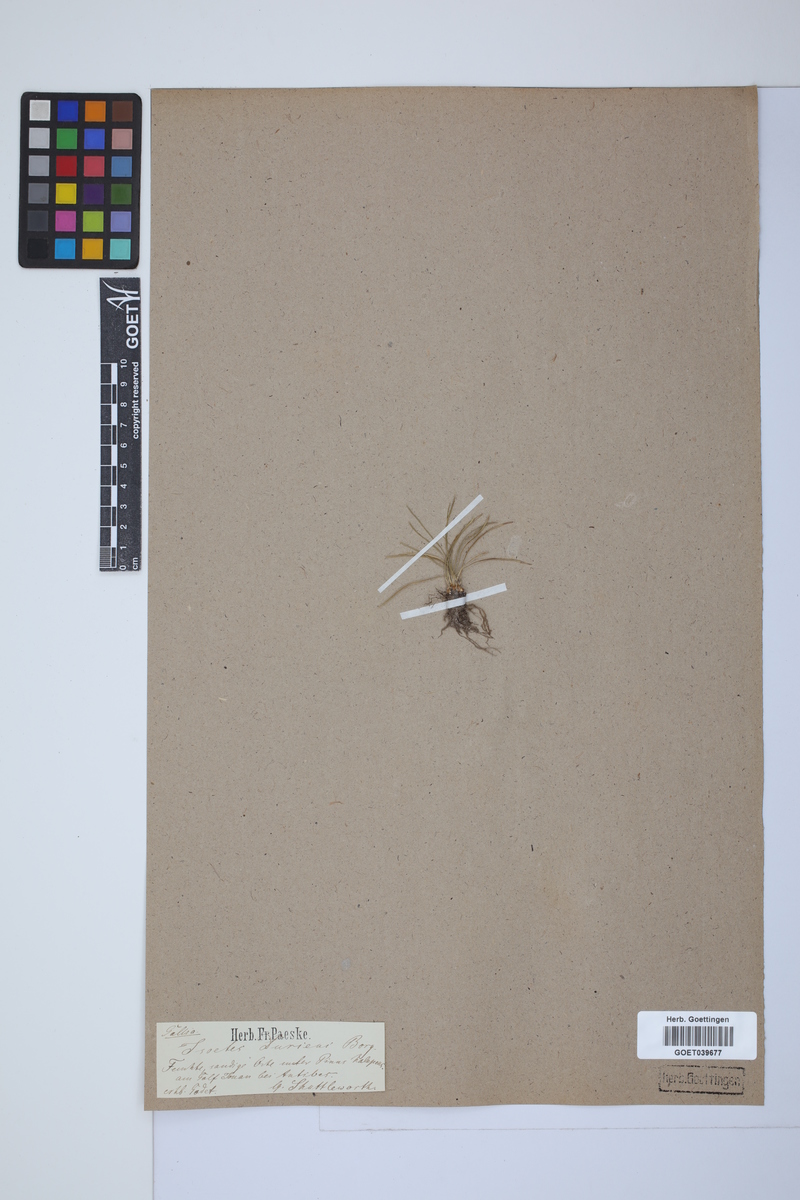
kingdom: Plantae
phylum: Tracheophyta
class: Lycopodiopsida
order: Isoetales
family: Isoetaceae
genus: Isoetes
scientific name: Isoetes duriei
